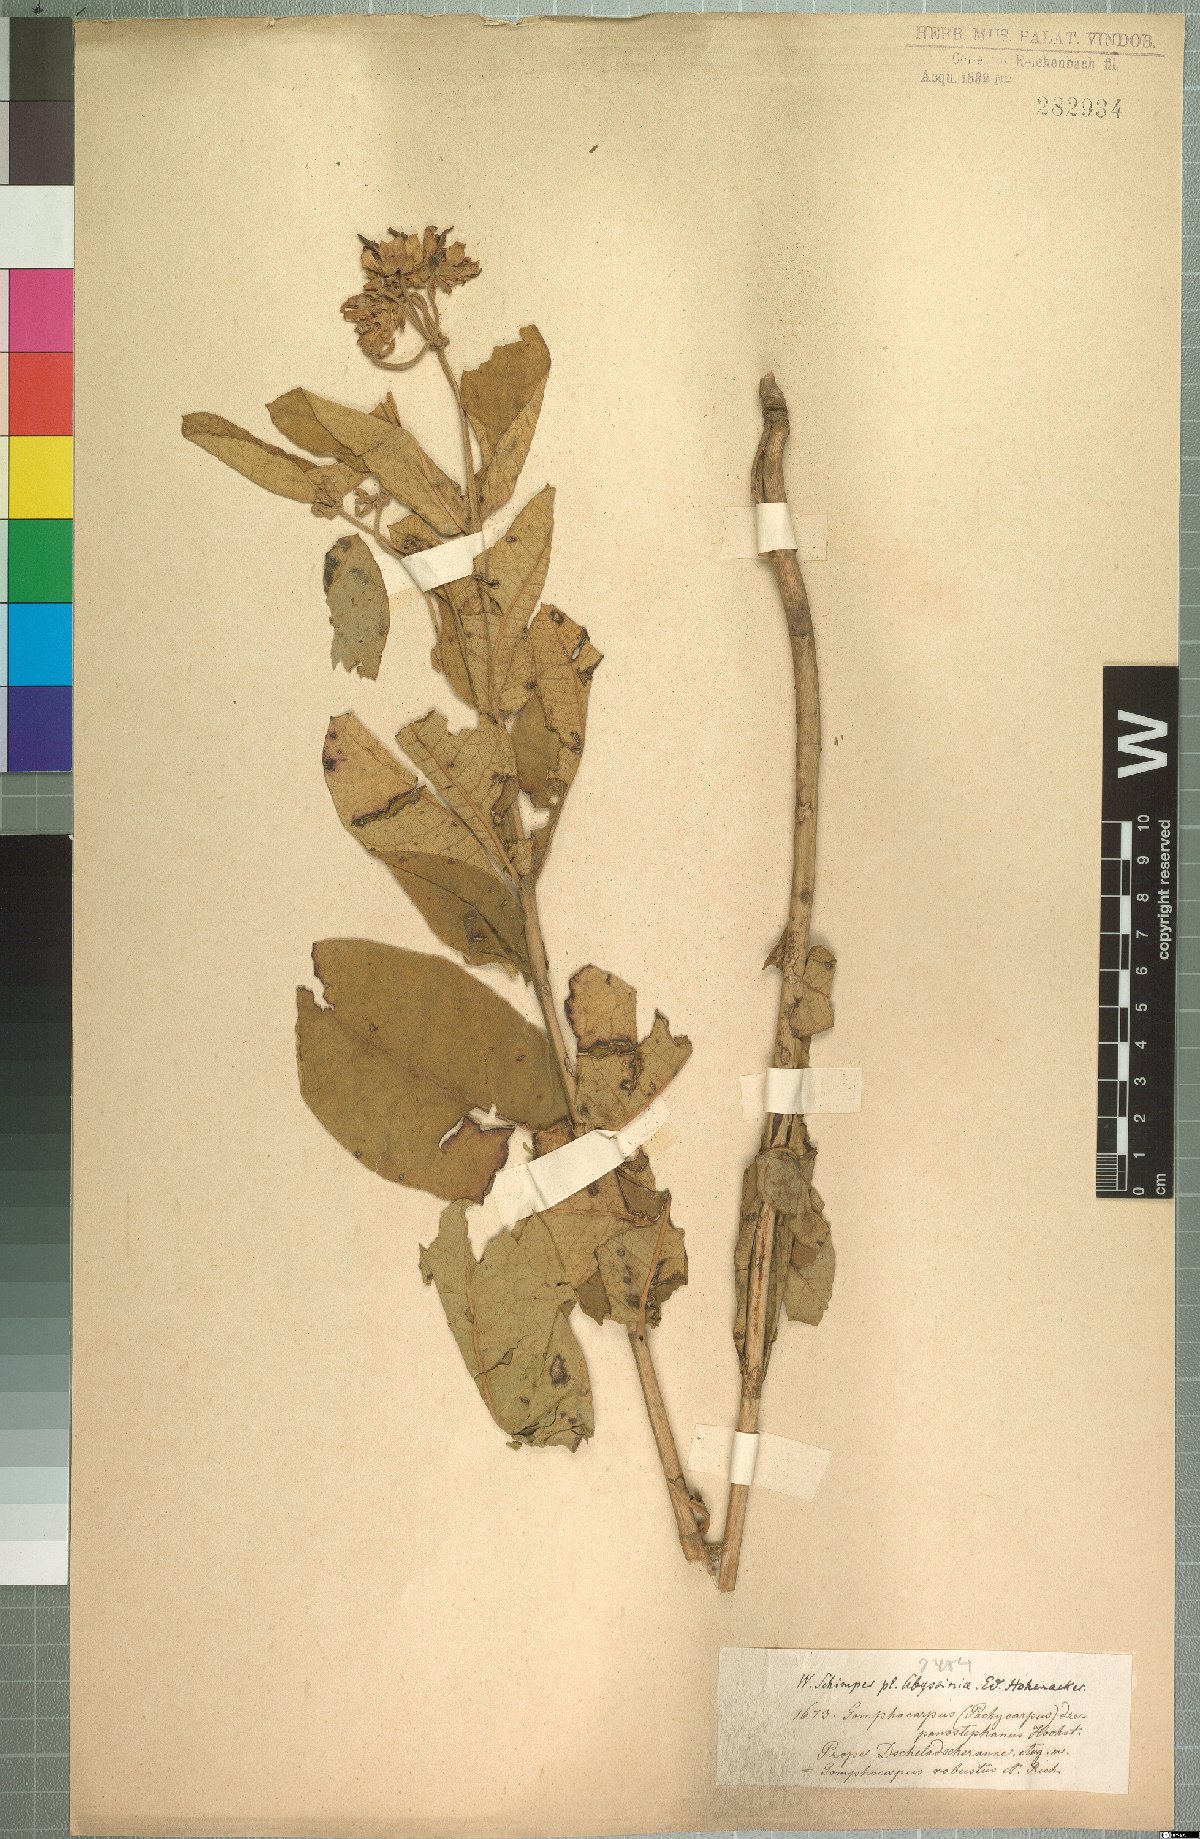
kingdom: Plantae
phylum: Tracheophyta
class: Magnoliopsida
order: Gentianales
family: Apocynaceae
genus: Pachycarpus
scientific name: Pachycarpus robustus
